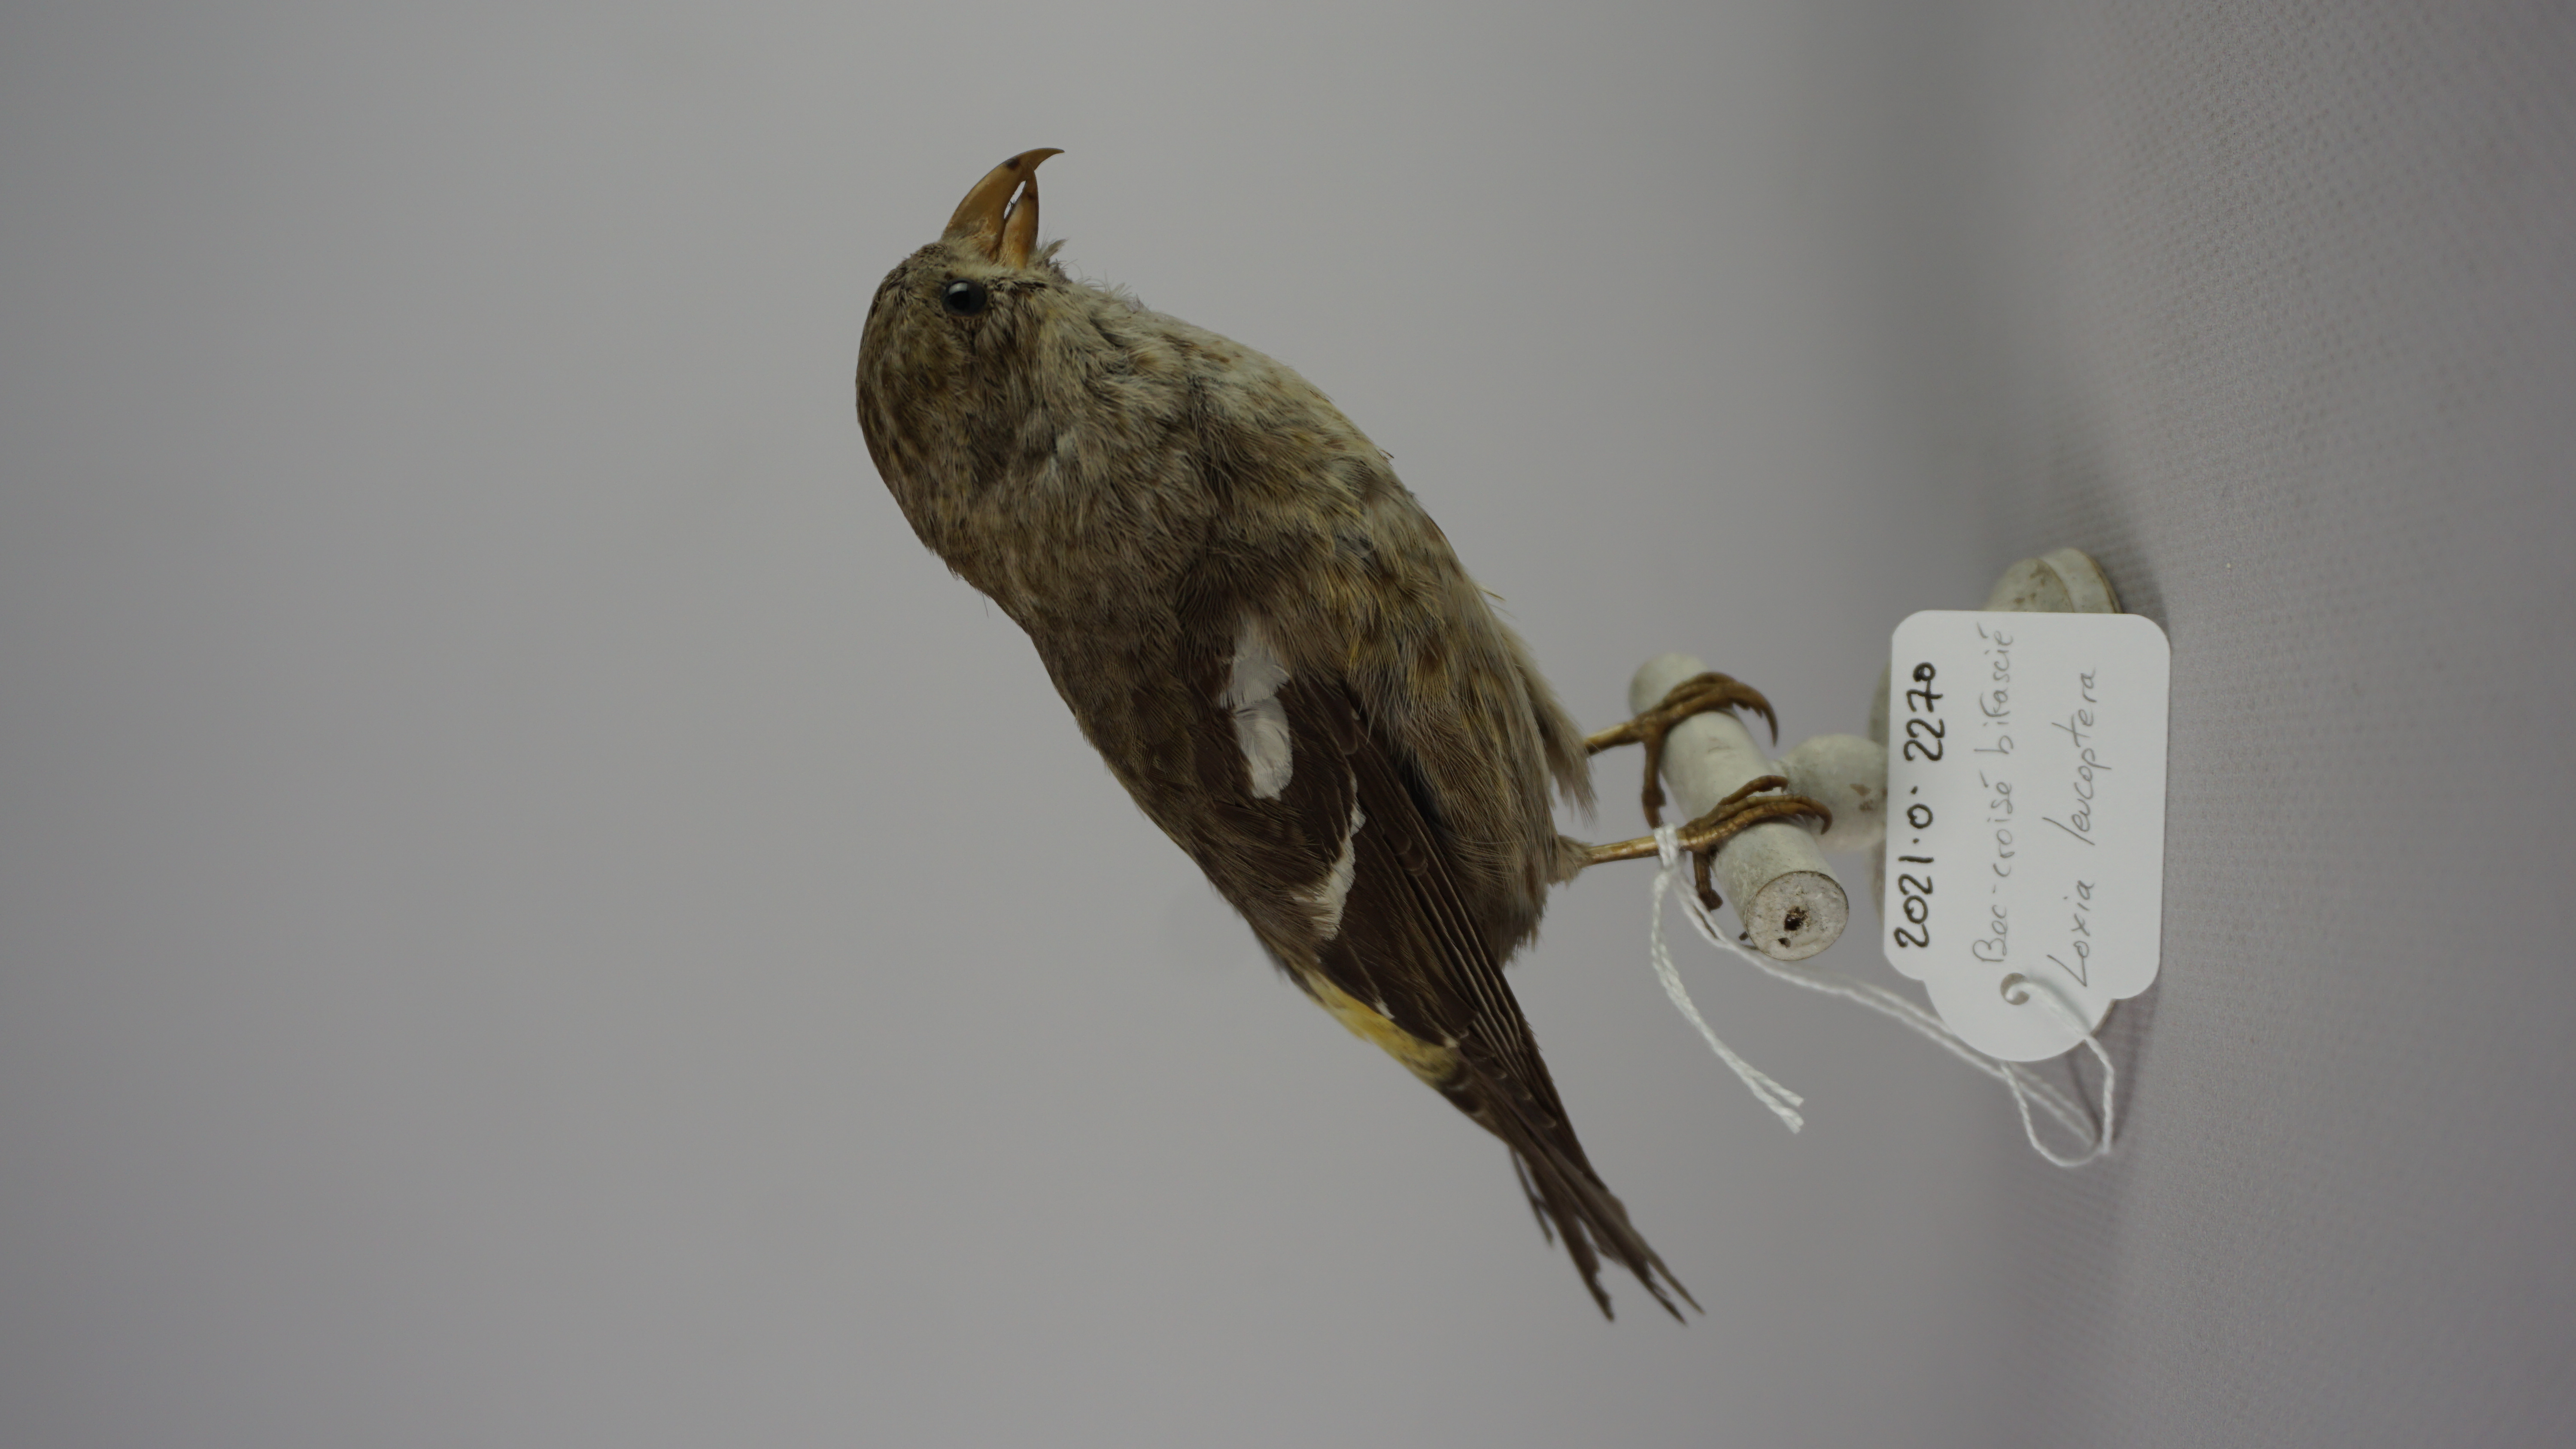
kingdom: Animalia
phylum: Chordata
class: Aves
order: Passeriformes
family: Fringillidae
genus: Loxia
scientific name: Loxia leucoptera
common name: Two-barred crossbill
